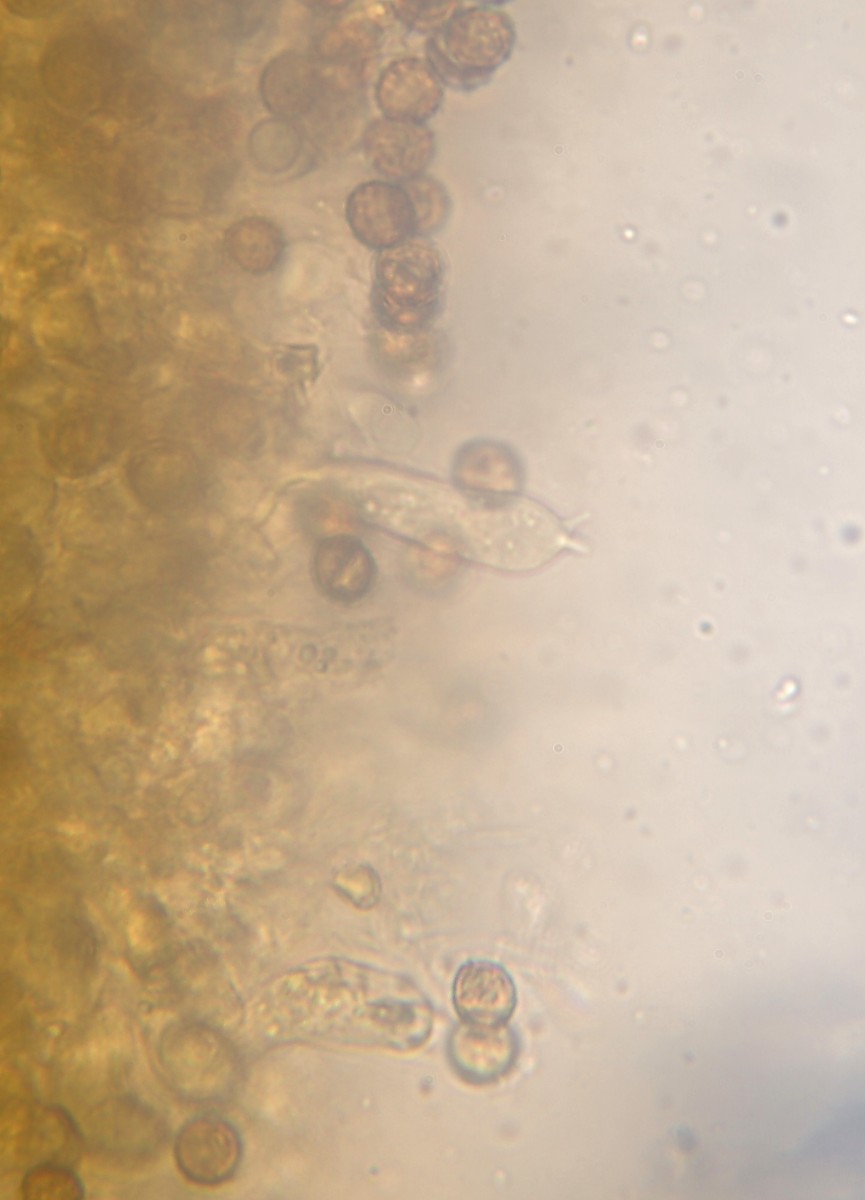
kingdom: Fungi
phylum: Basidiomycota
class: Agaricomycetes
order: Agaricales
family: Cortinariaceae
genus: Cortinarius
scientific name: Cortinarius
